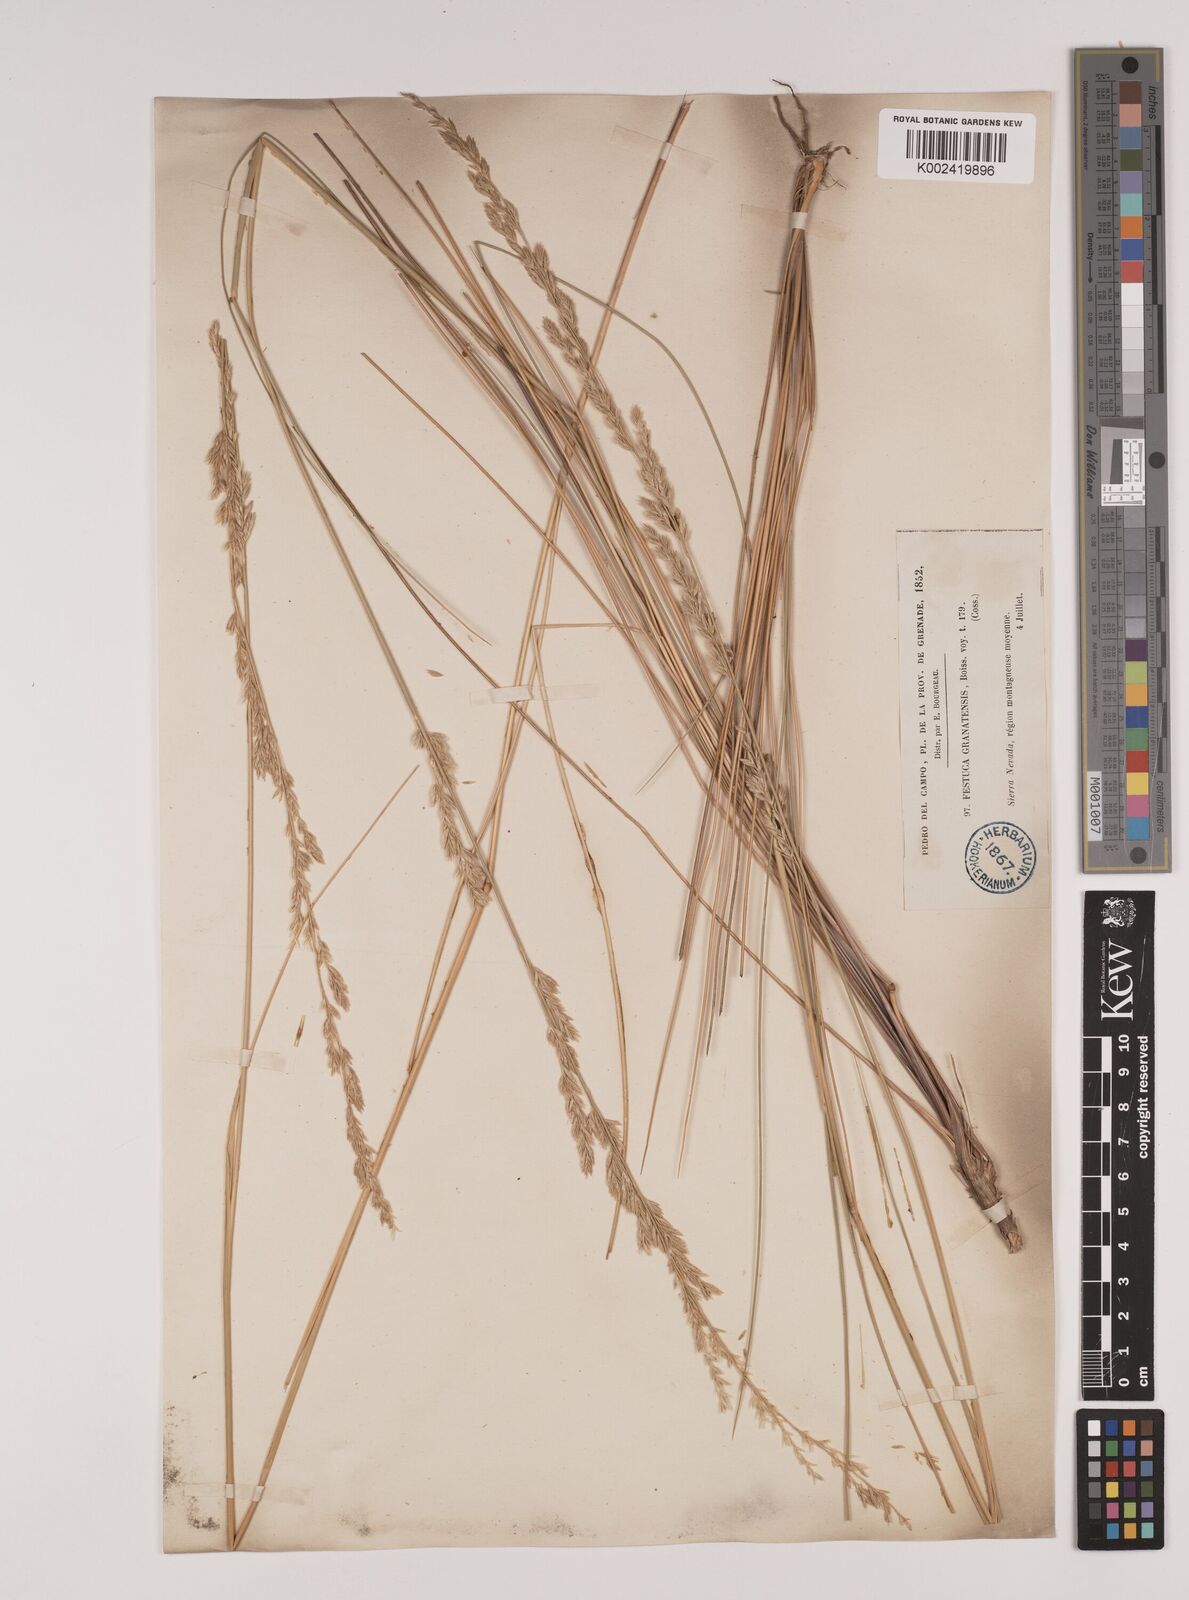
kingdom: Plantae
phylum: Tracheophyta
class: Liliopsida
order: Poales
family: Poaceae
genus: Festuca
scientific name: Festuca scariosa
